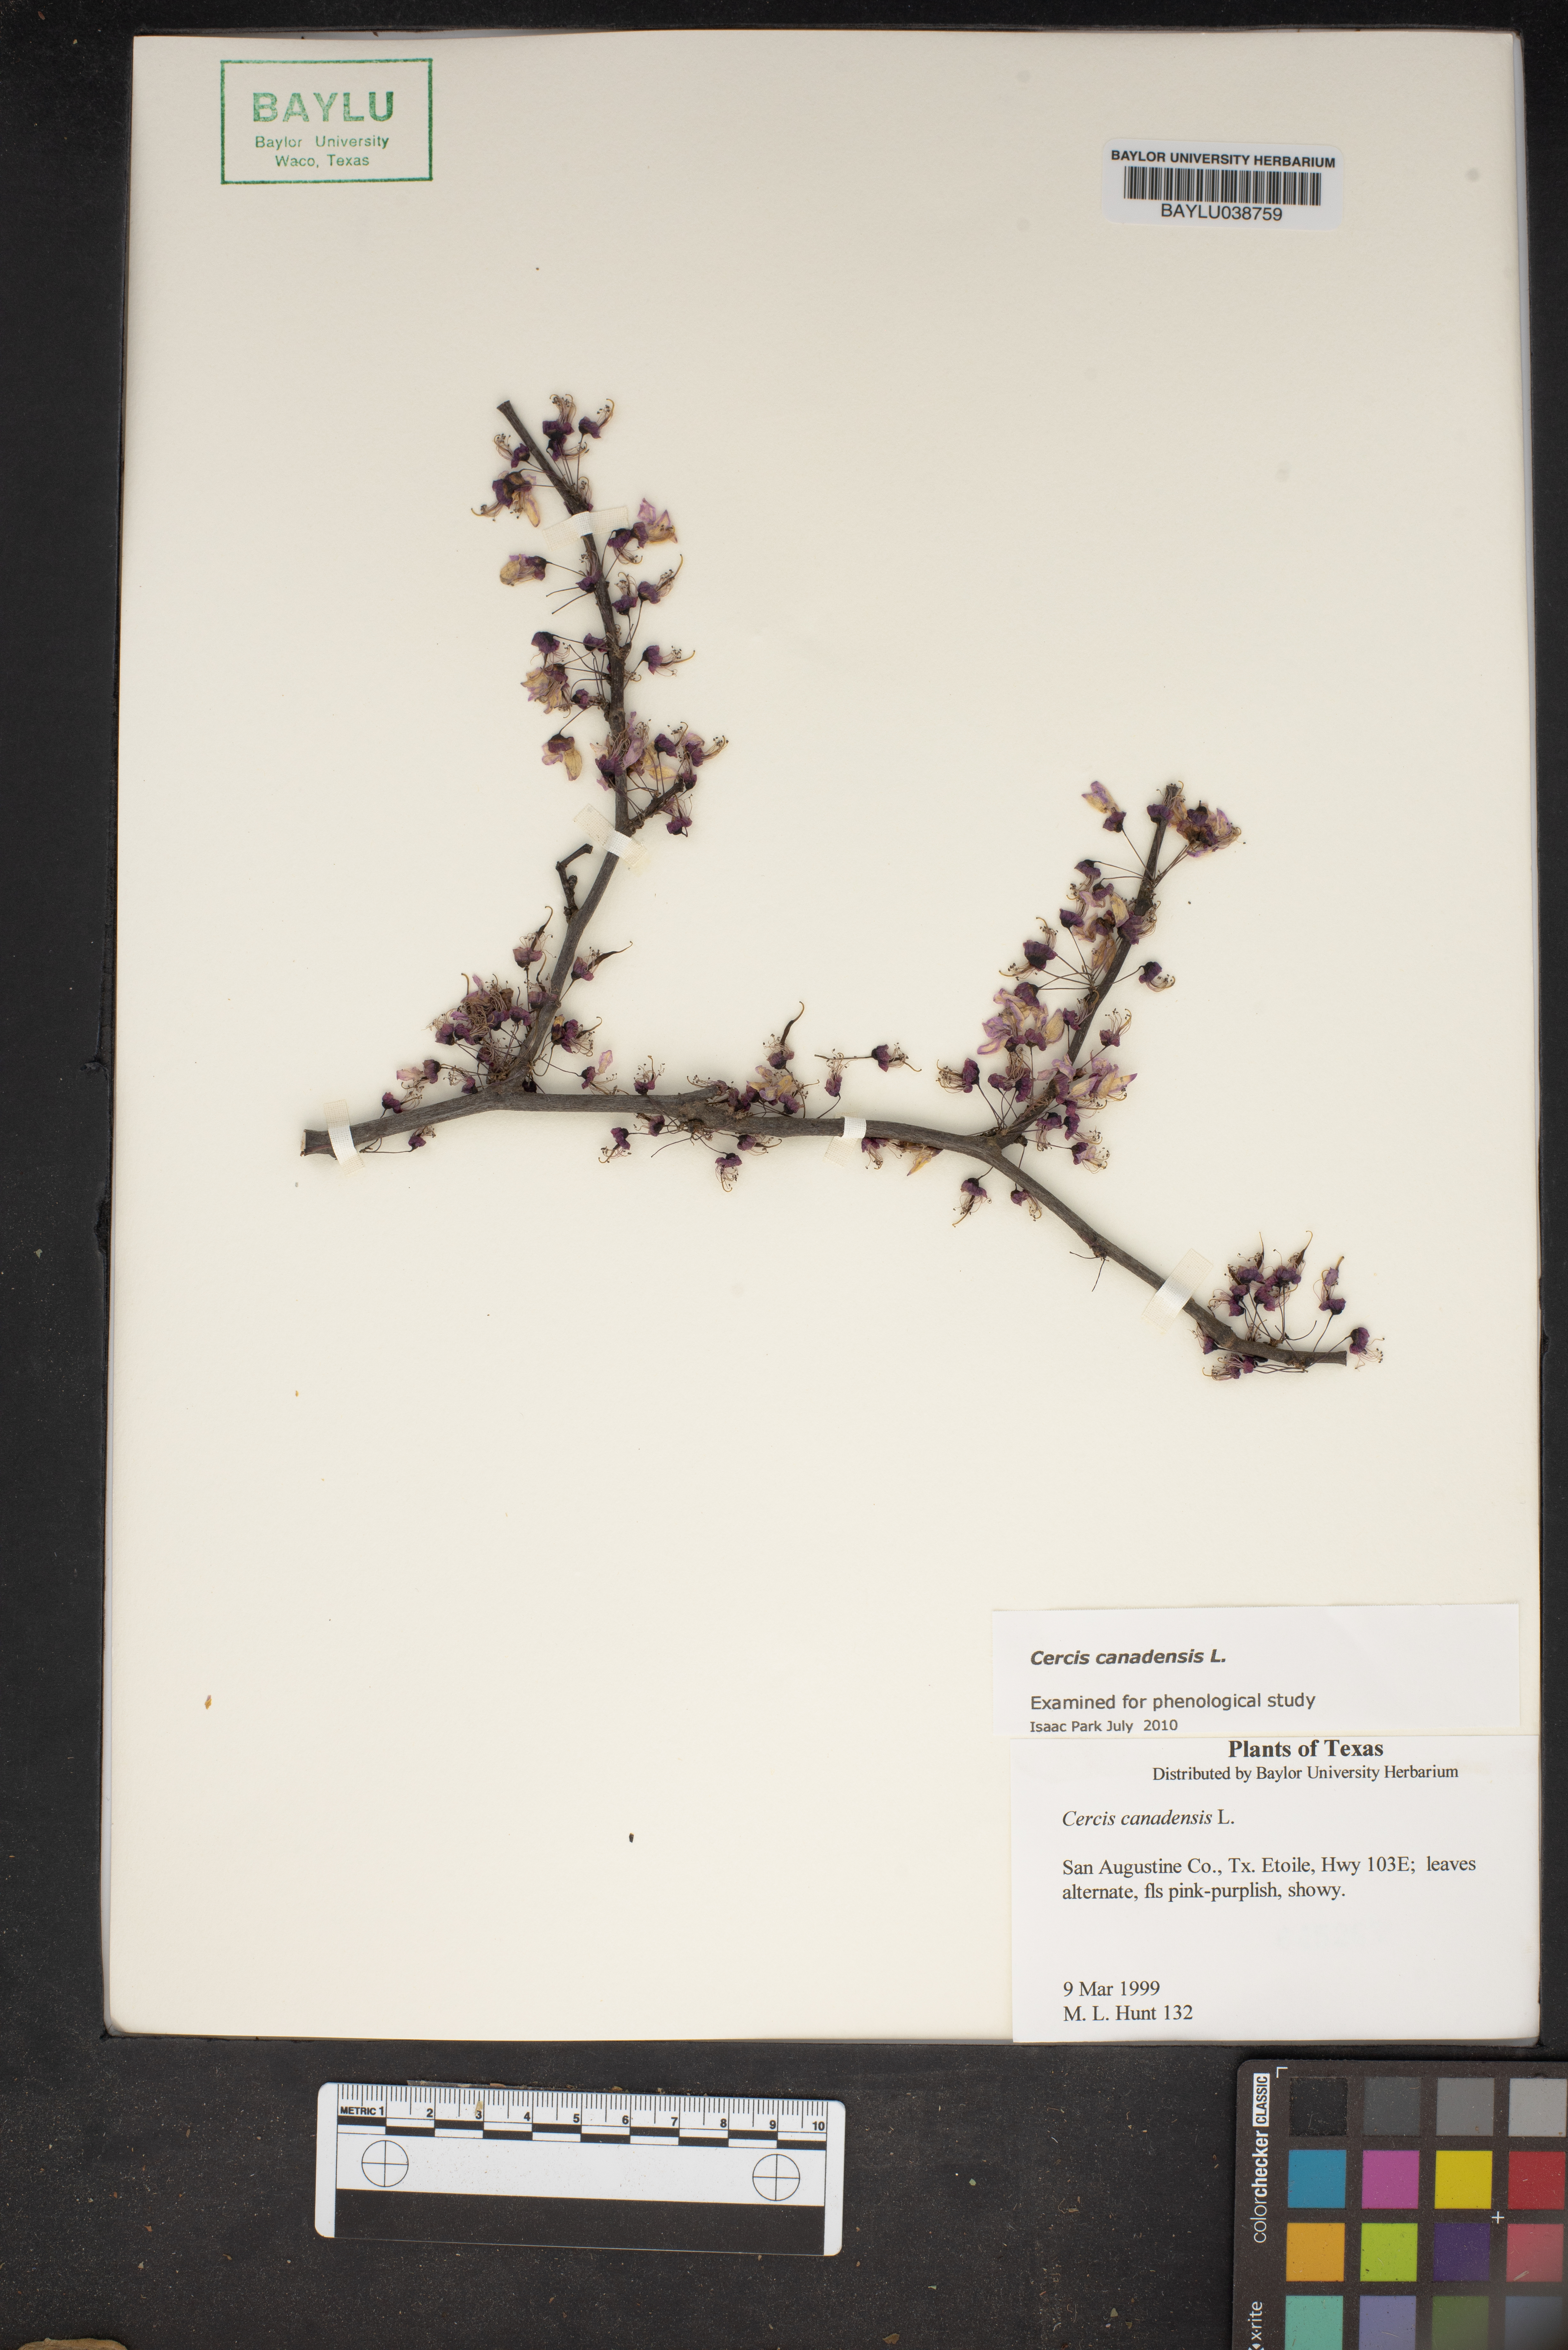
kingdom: Plantae
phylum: Tracheophyta
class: Magnoliopsida
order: Fabales
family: Fabaceae
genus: Cercis
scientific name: Cercis canadensis
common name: Eastern redbud
